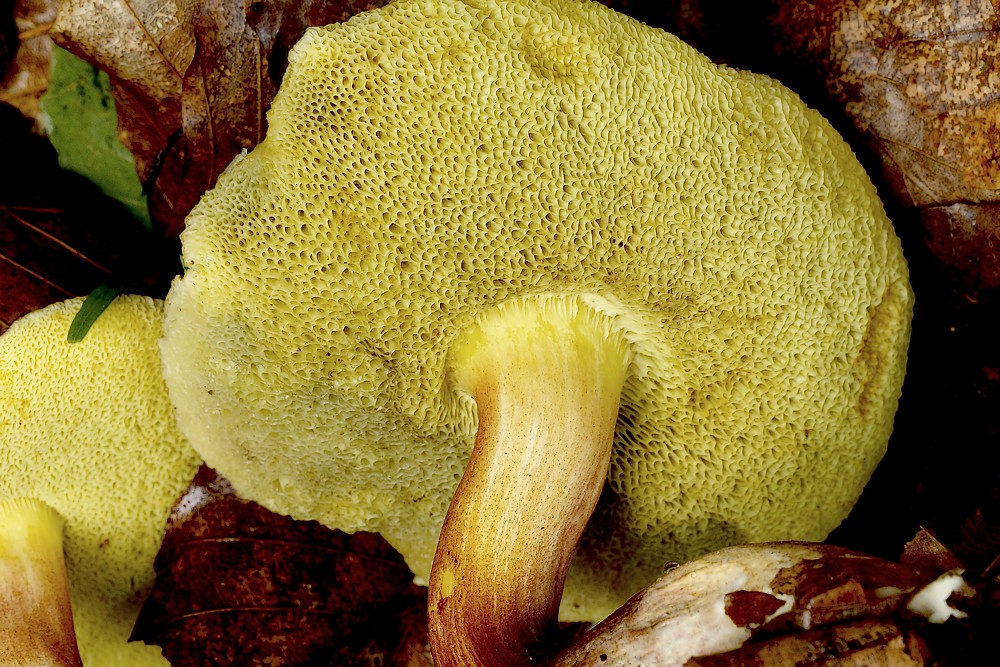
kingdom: Fungi
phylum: Basidiomycota
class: Agaricomycetes
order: Boletales
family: Boletaceae
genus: Xerocomellus
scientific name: Xerocomellus pruinatus
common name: dugget rørhat
